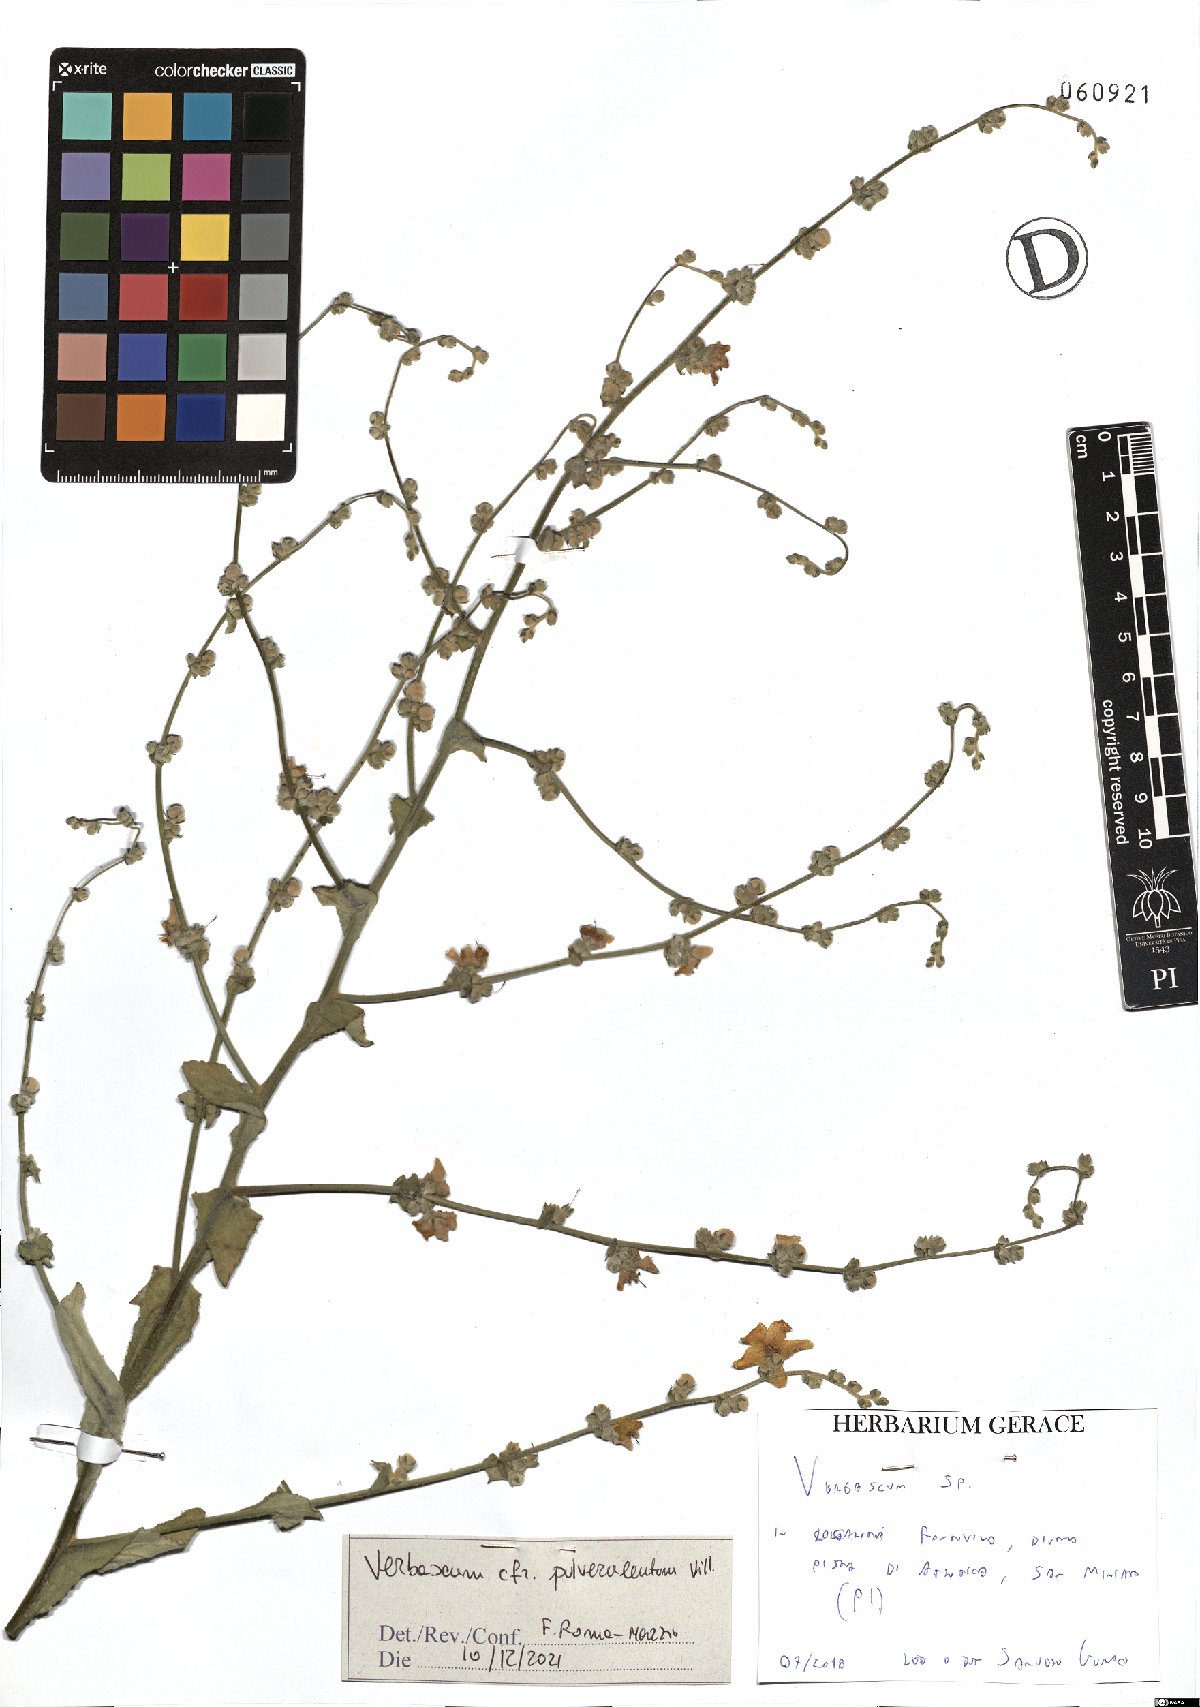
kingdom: Plantae
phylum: Tracheophyta
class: Magnoliopsida
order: Lamiales
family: Scrophulariaceae
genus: Verbascum
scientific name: Verbascum pulverulentum
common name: Broad-leaf mullein
